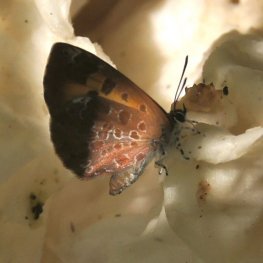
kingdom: Animalia
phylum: Arthropoda
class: Insecta
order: Lepidoptera
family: Lycaenidae
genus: Feniseca
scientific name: Feniseca tarquinius
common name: Harvester
